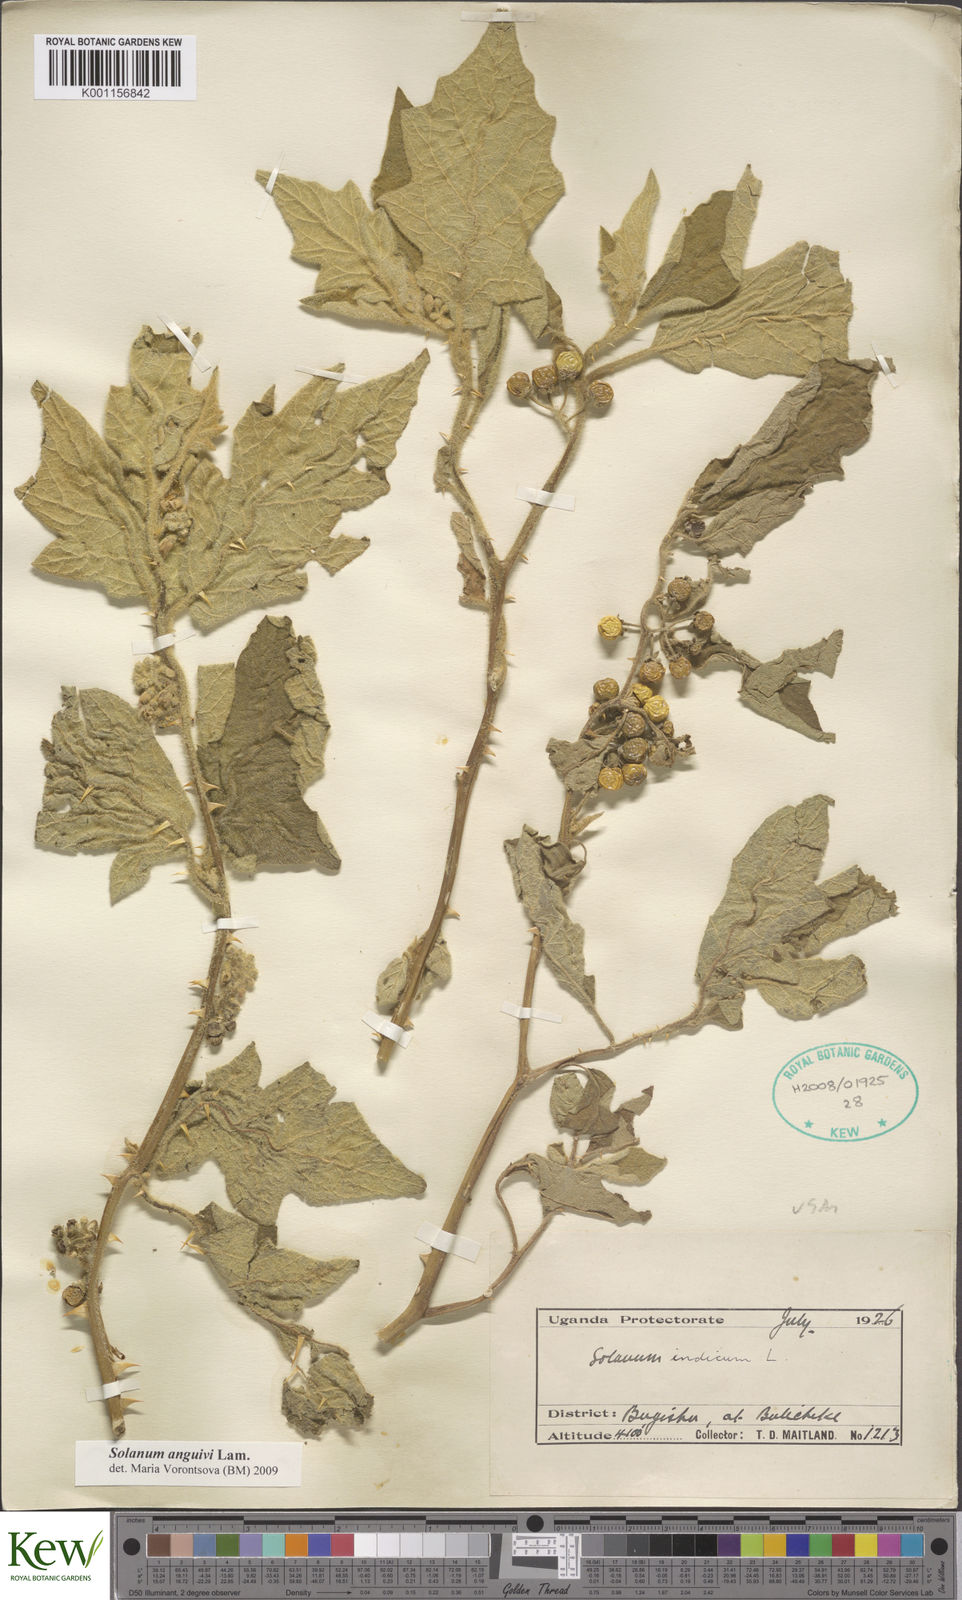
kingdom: Plantae
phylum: Tracheophyta
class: Magnoliopsida
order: Solanales
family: Solanaceae
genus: Solanum
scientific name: Solanum anguivi
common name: Forest bitterberry
